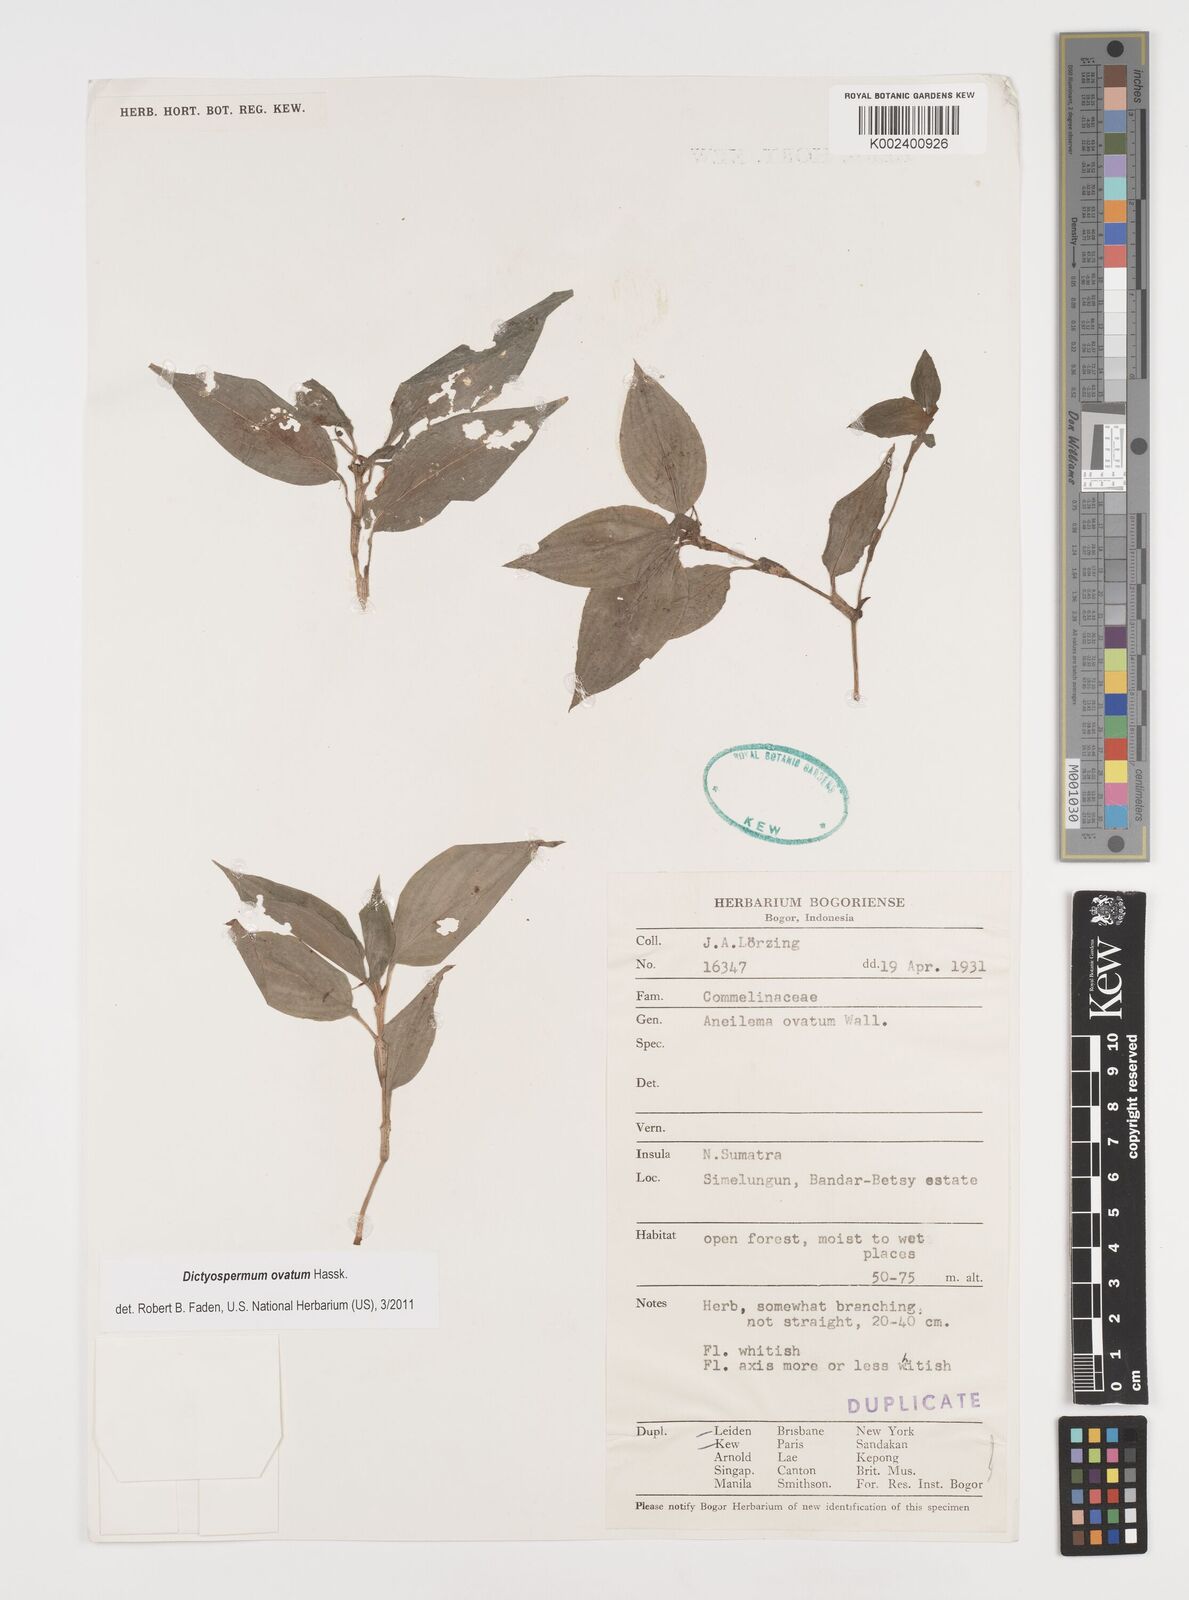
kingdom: Plantae
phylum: Tracheophyta
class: Liliopsida
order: Commelinales
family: Commelinaceae
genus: Dictyospermum
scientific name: Dictyospermum ovatum
